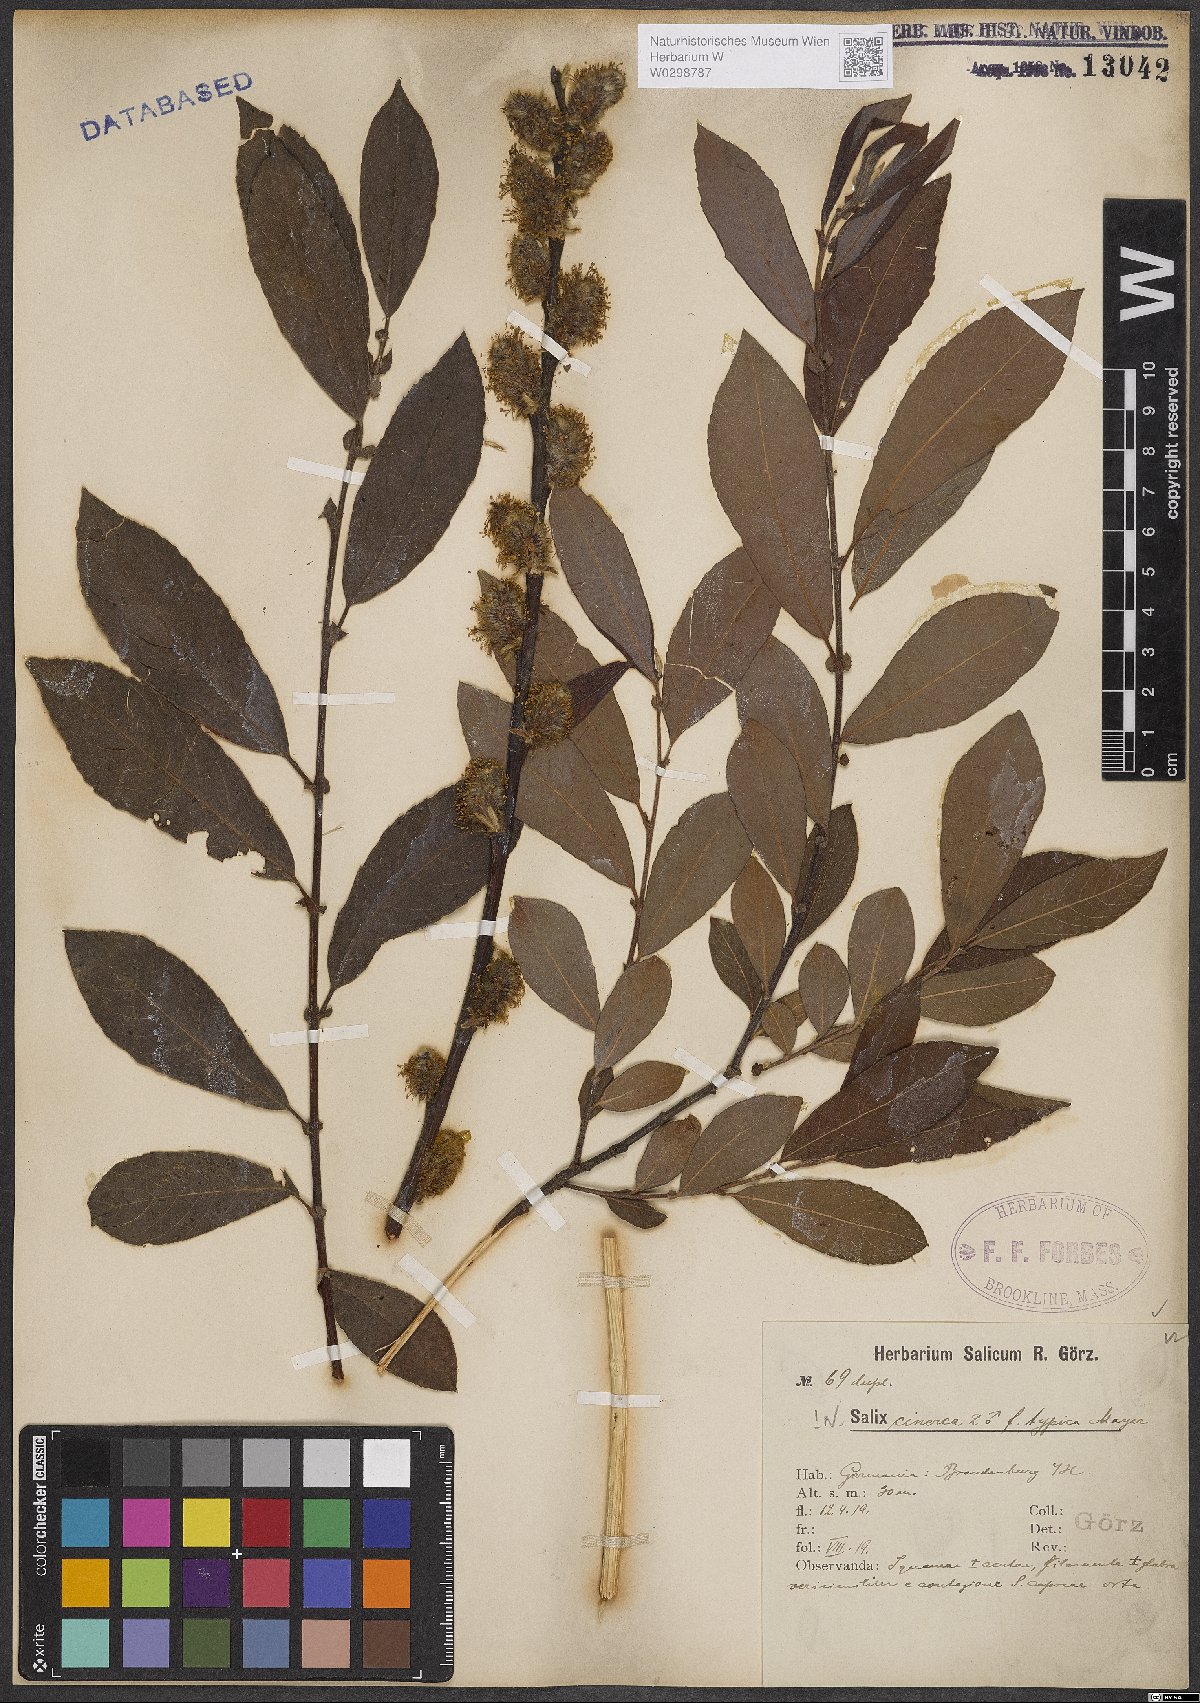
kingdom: Plantae
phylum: Tracheophyta
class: Magnoliopsida
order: Malpighiales
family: Salicaceae
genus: Salix
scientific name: Salix cinerea
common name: Common sallow
